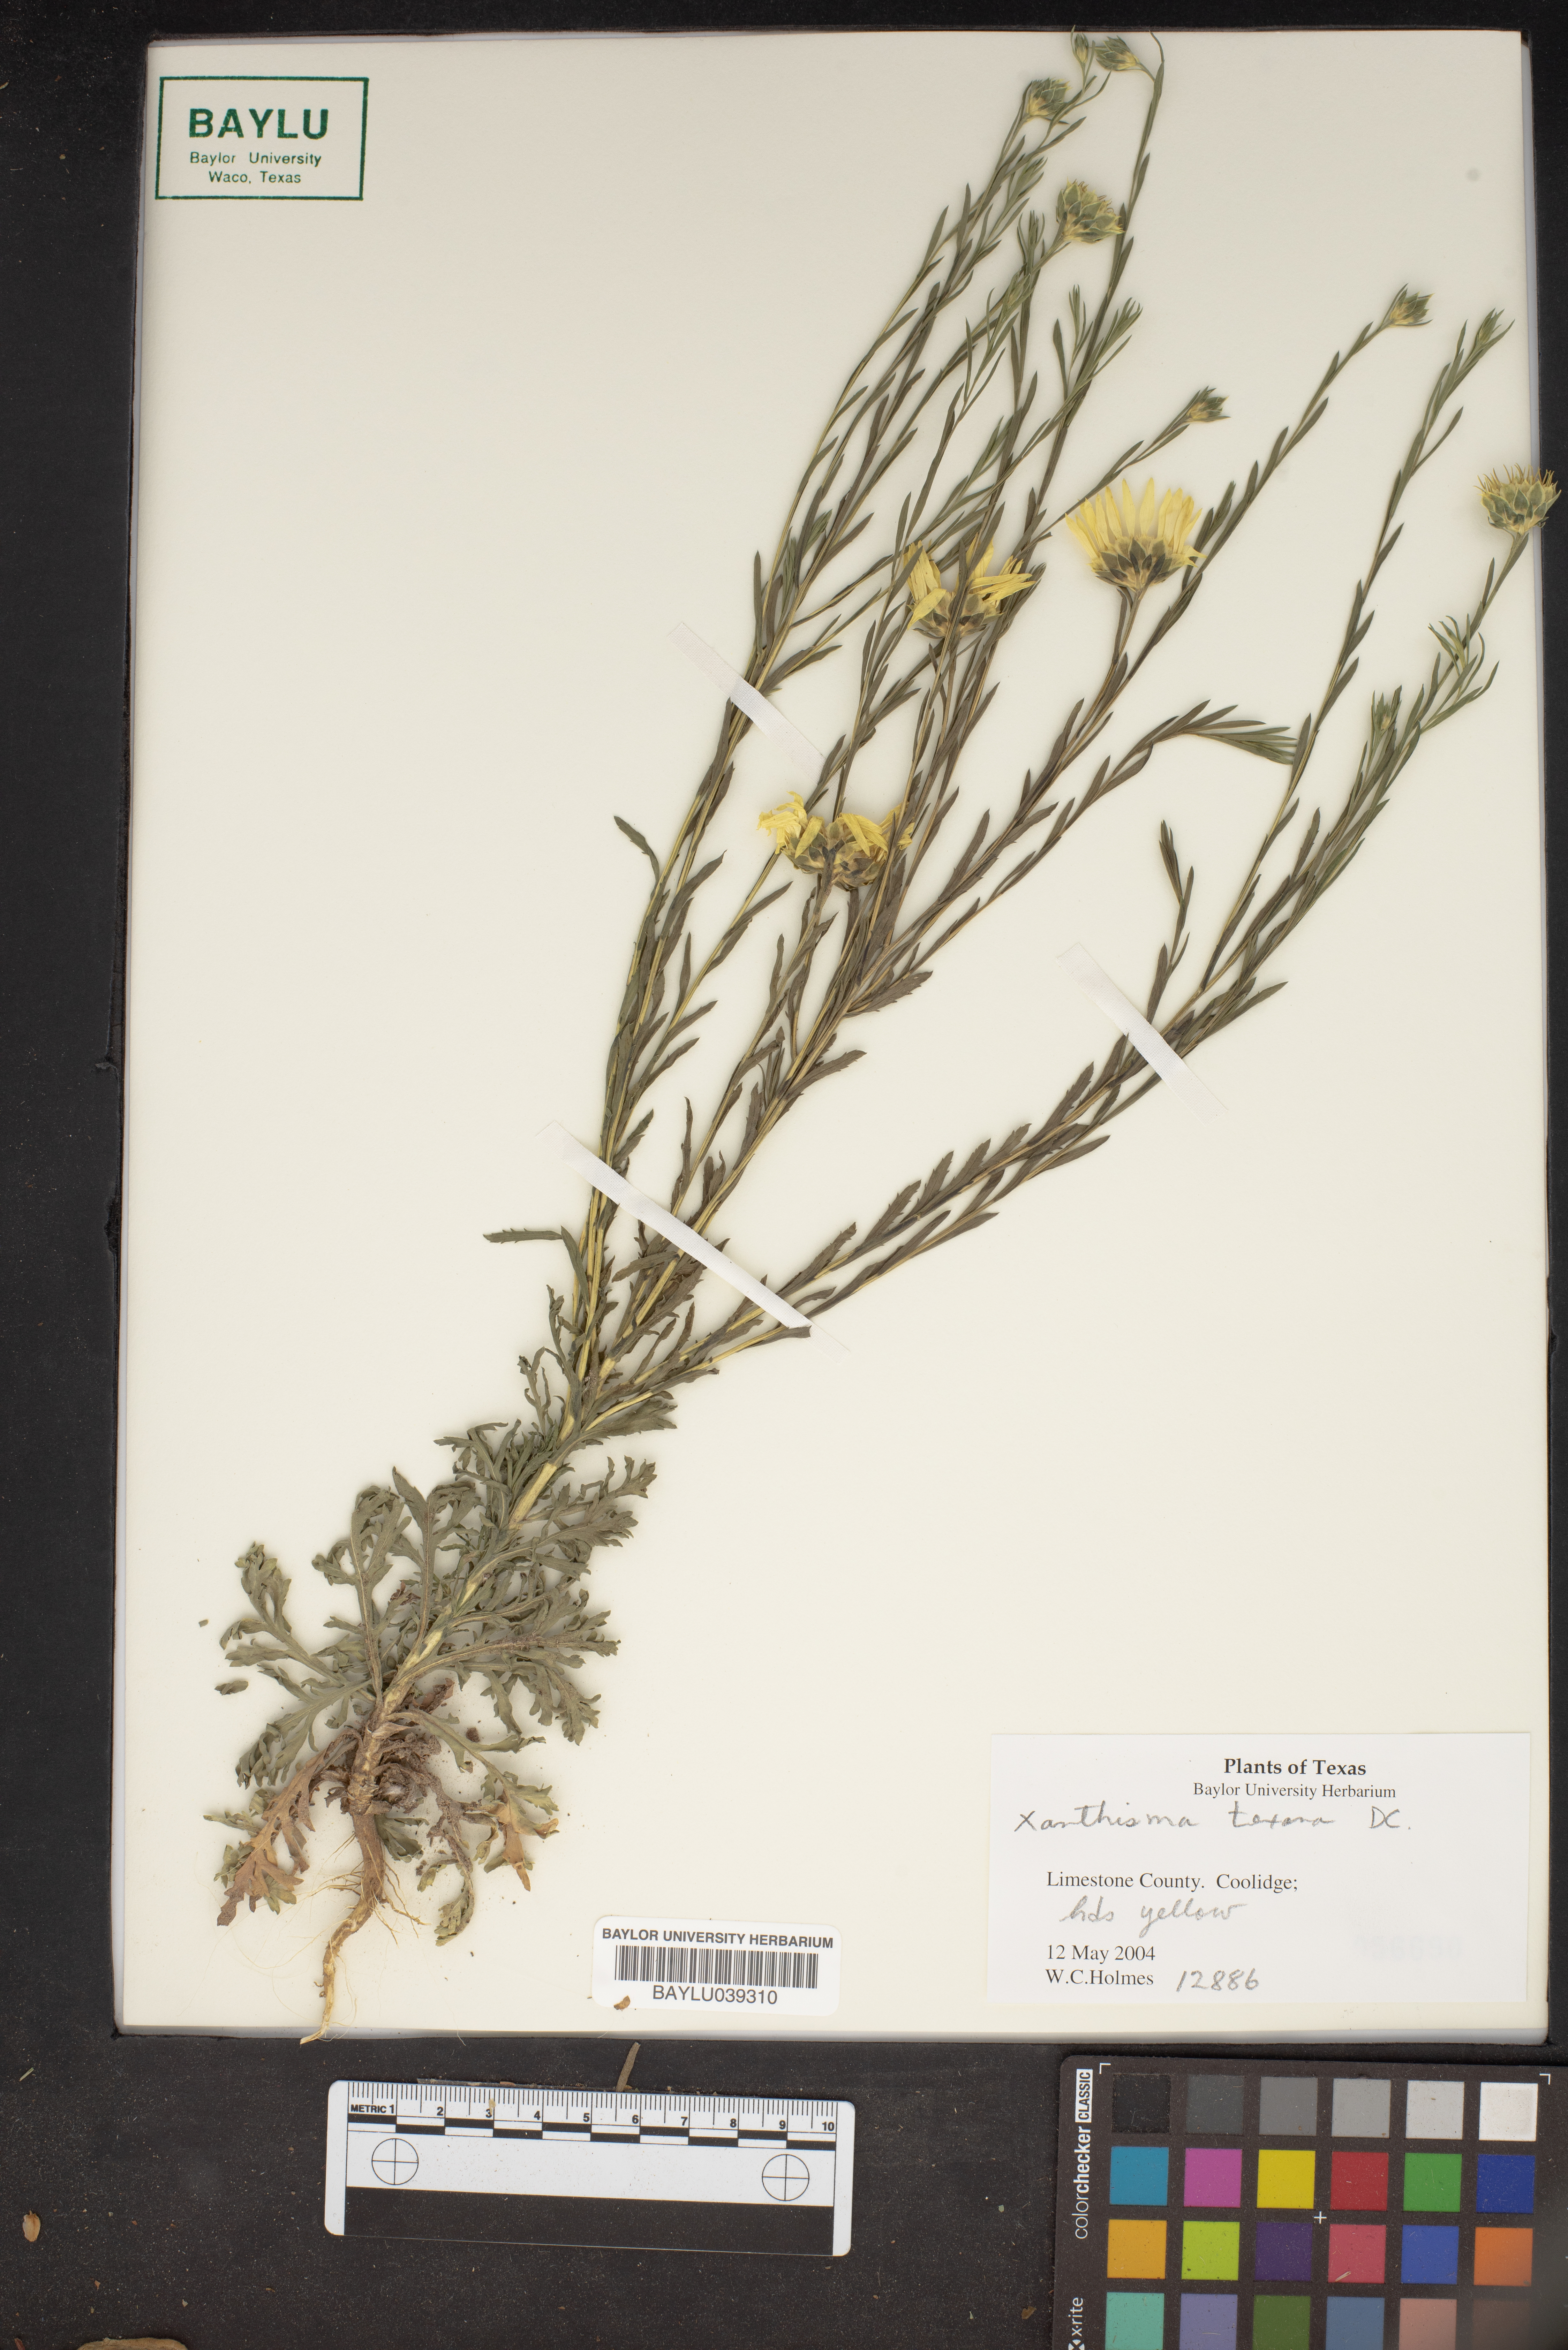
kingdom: Plantae
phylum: Tracheophyta
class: Magnoliopsida
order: Asterales
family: Asteraceae
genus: Xanthisma
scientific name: Xanthisma texanum
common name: Texas sleepy daisy
